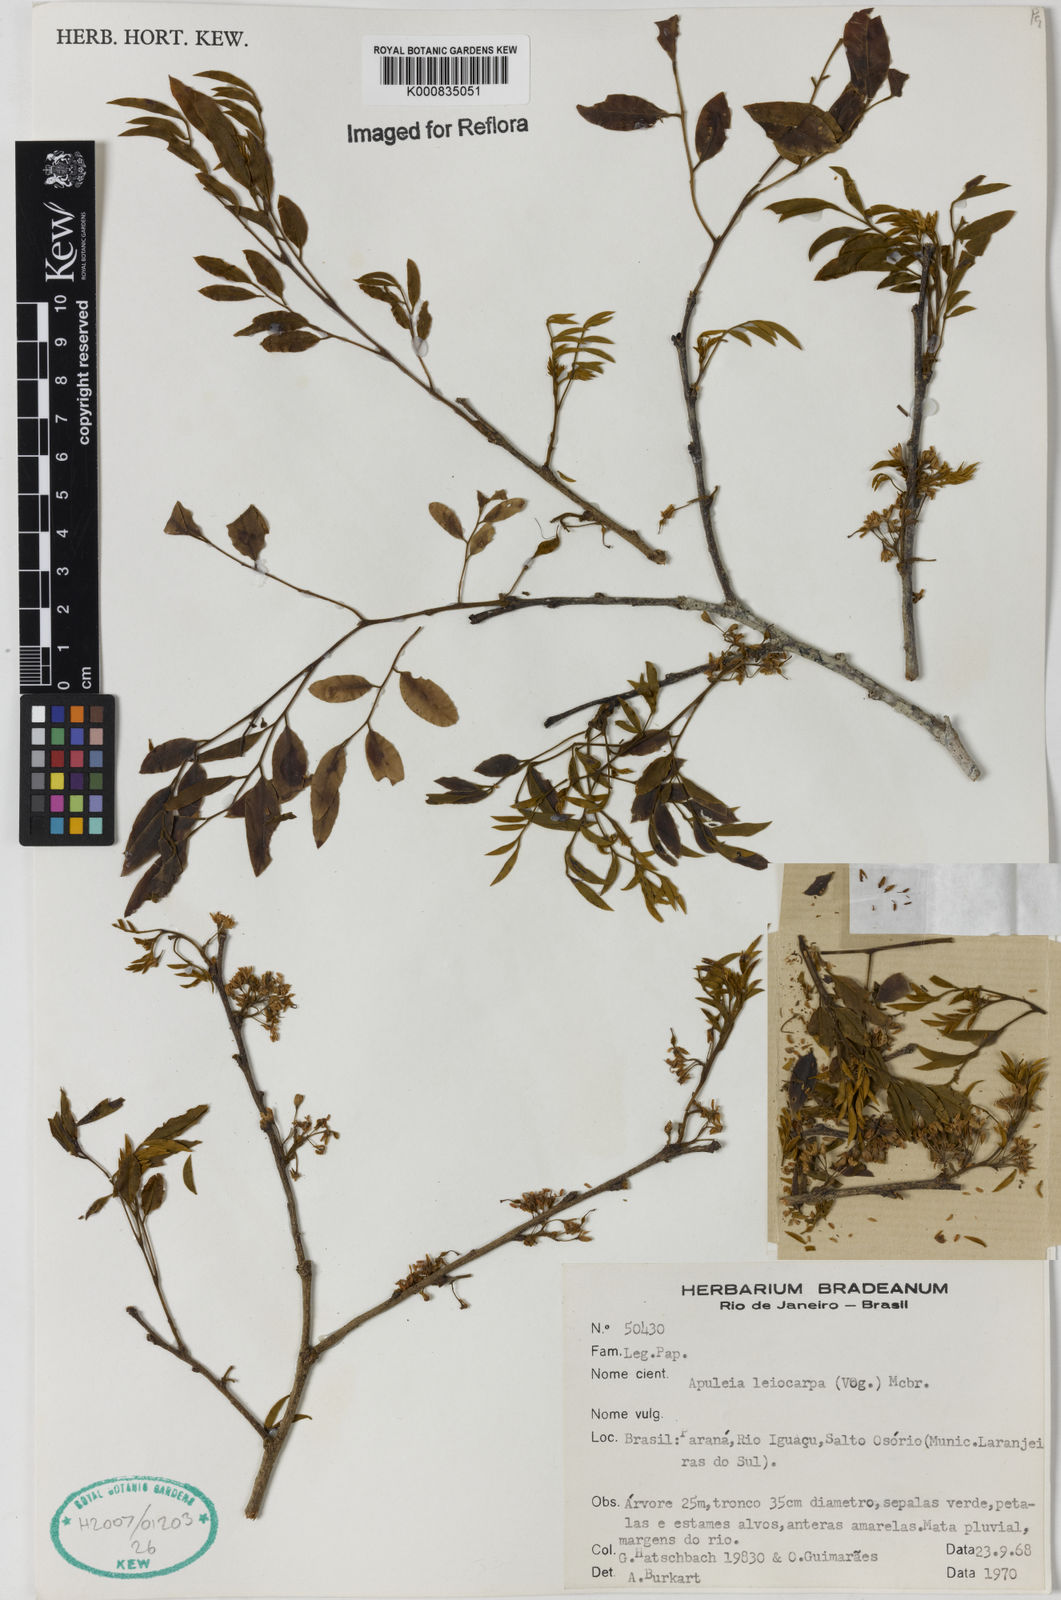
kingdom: Plantae
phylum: Tracheophyta
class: Magnoliopsida
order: Fabales
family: Fabaceae
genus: Apuleia
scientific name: Apuleia leiocarpa
